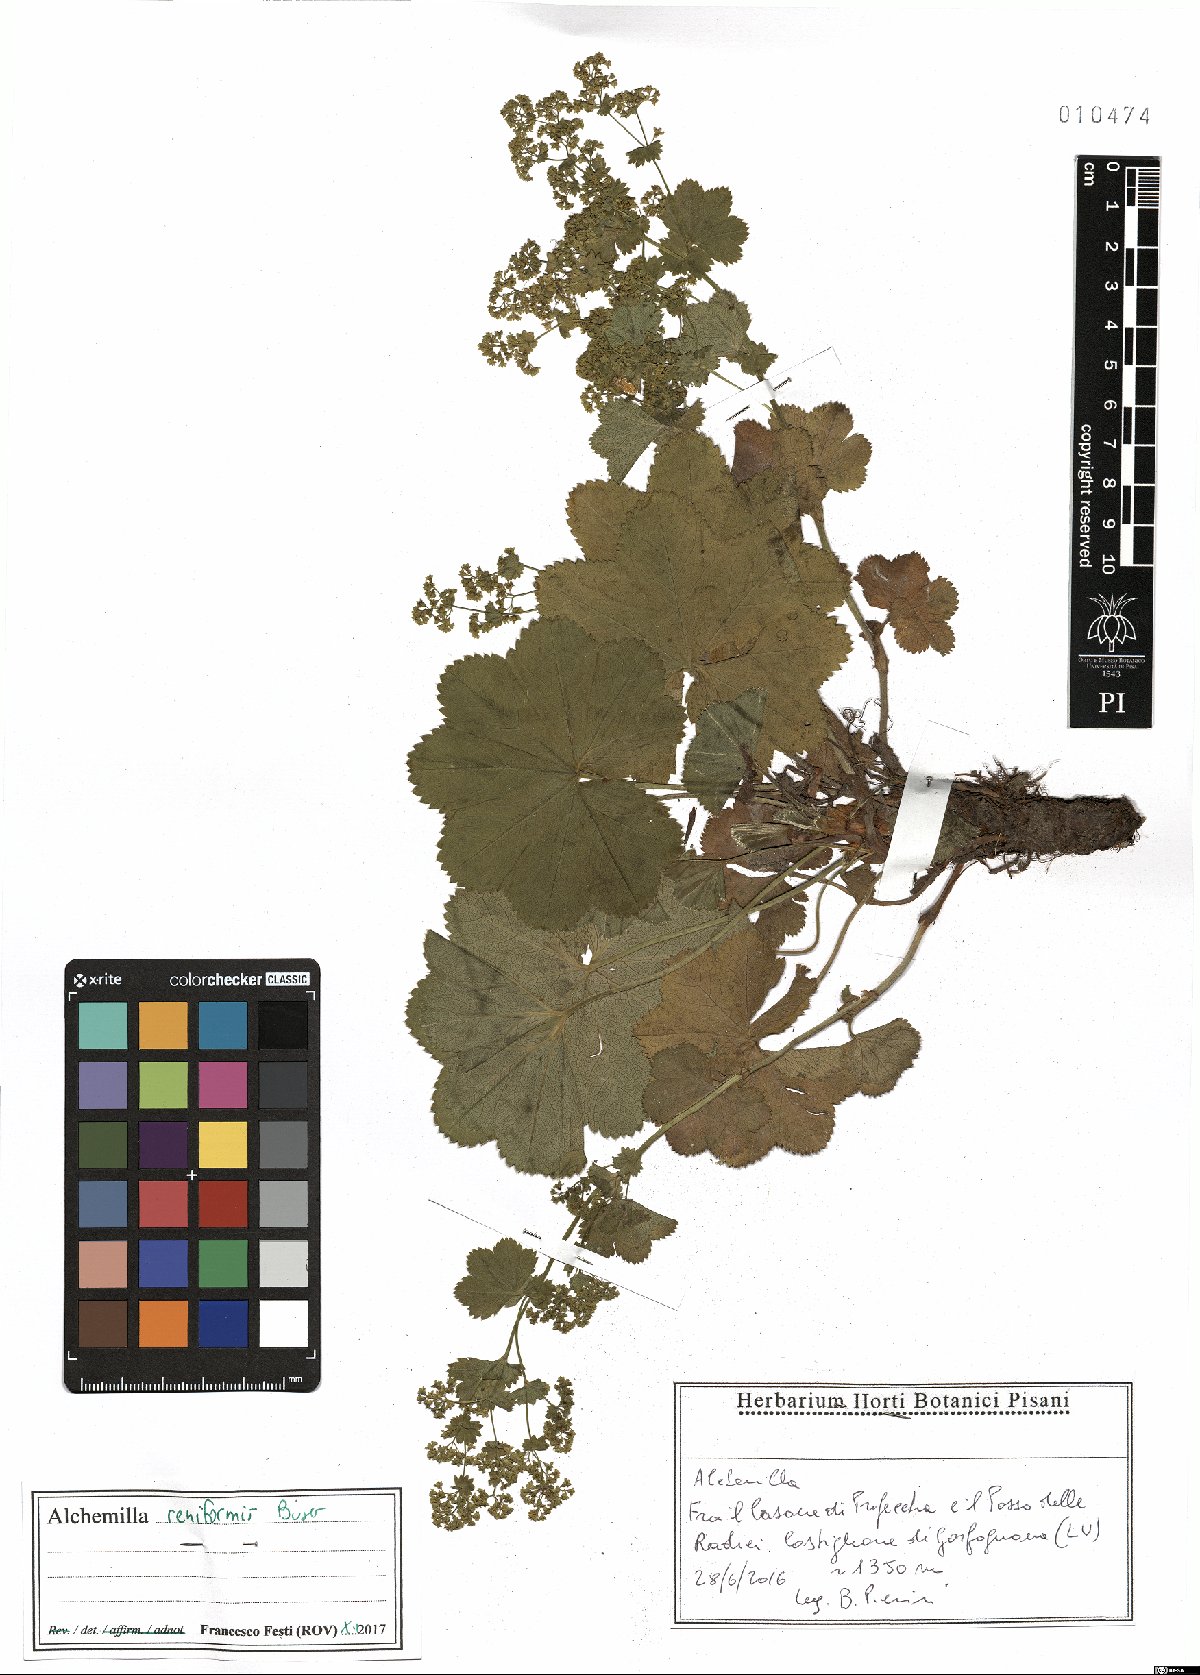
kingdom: Plantae
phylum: Tracheophyta
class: Magnoliopsida
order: Rosales
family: Rosaceae
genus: Alchemilla
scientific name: Alchemilla reniformis
